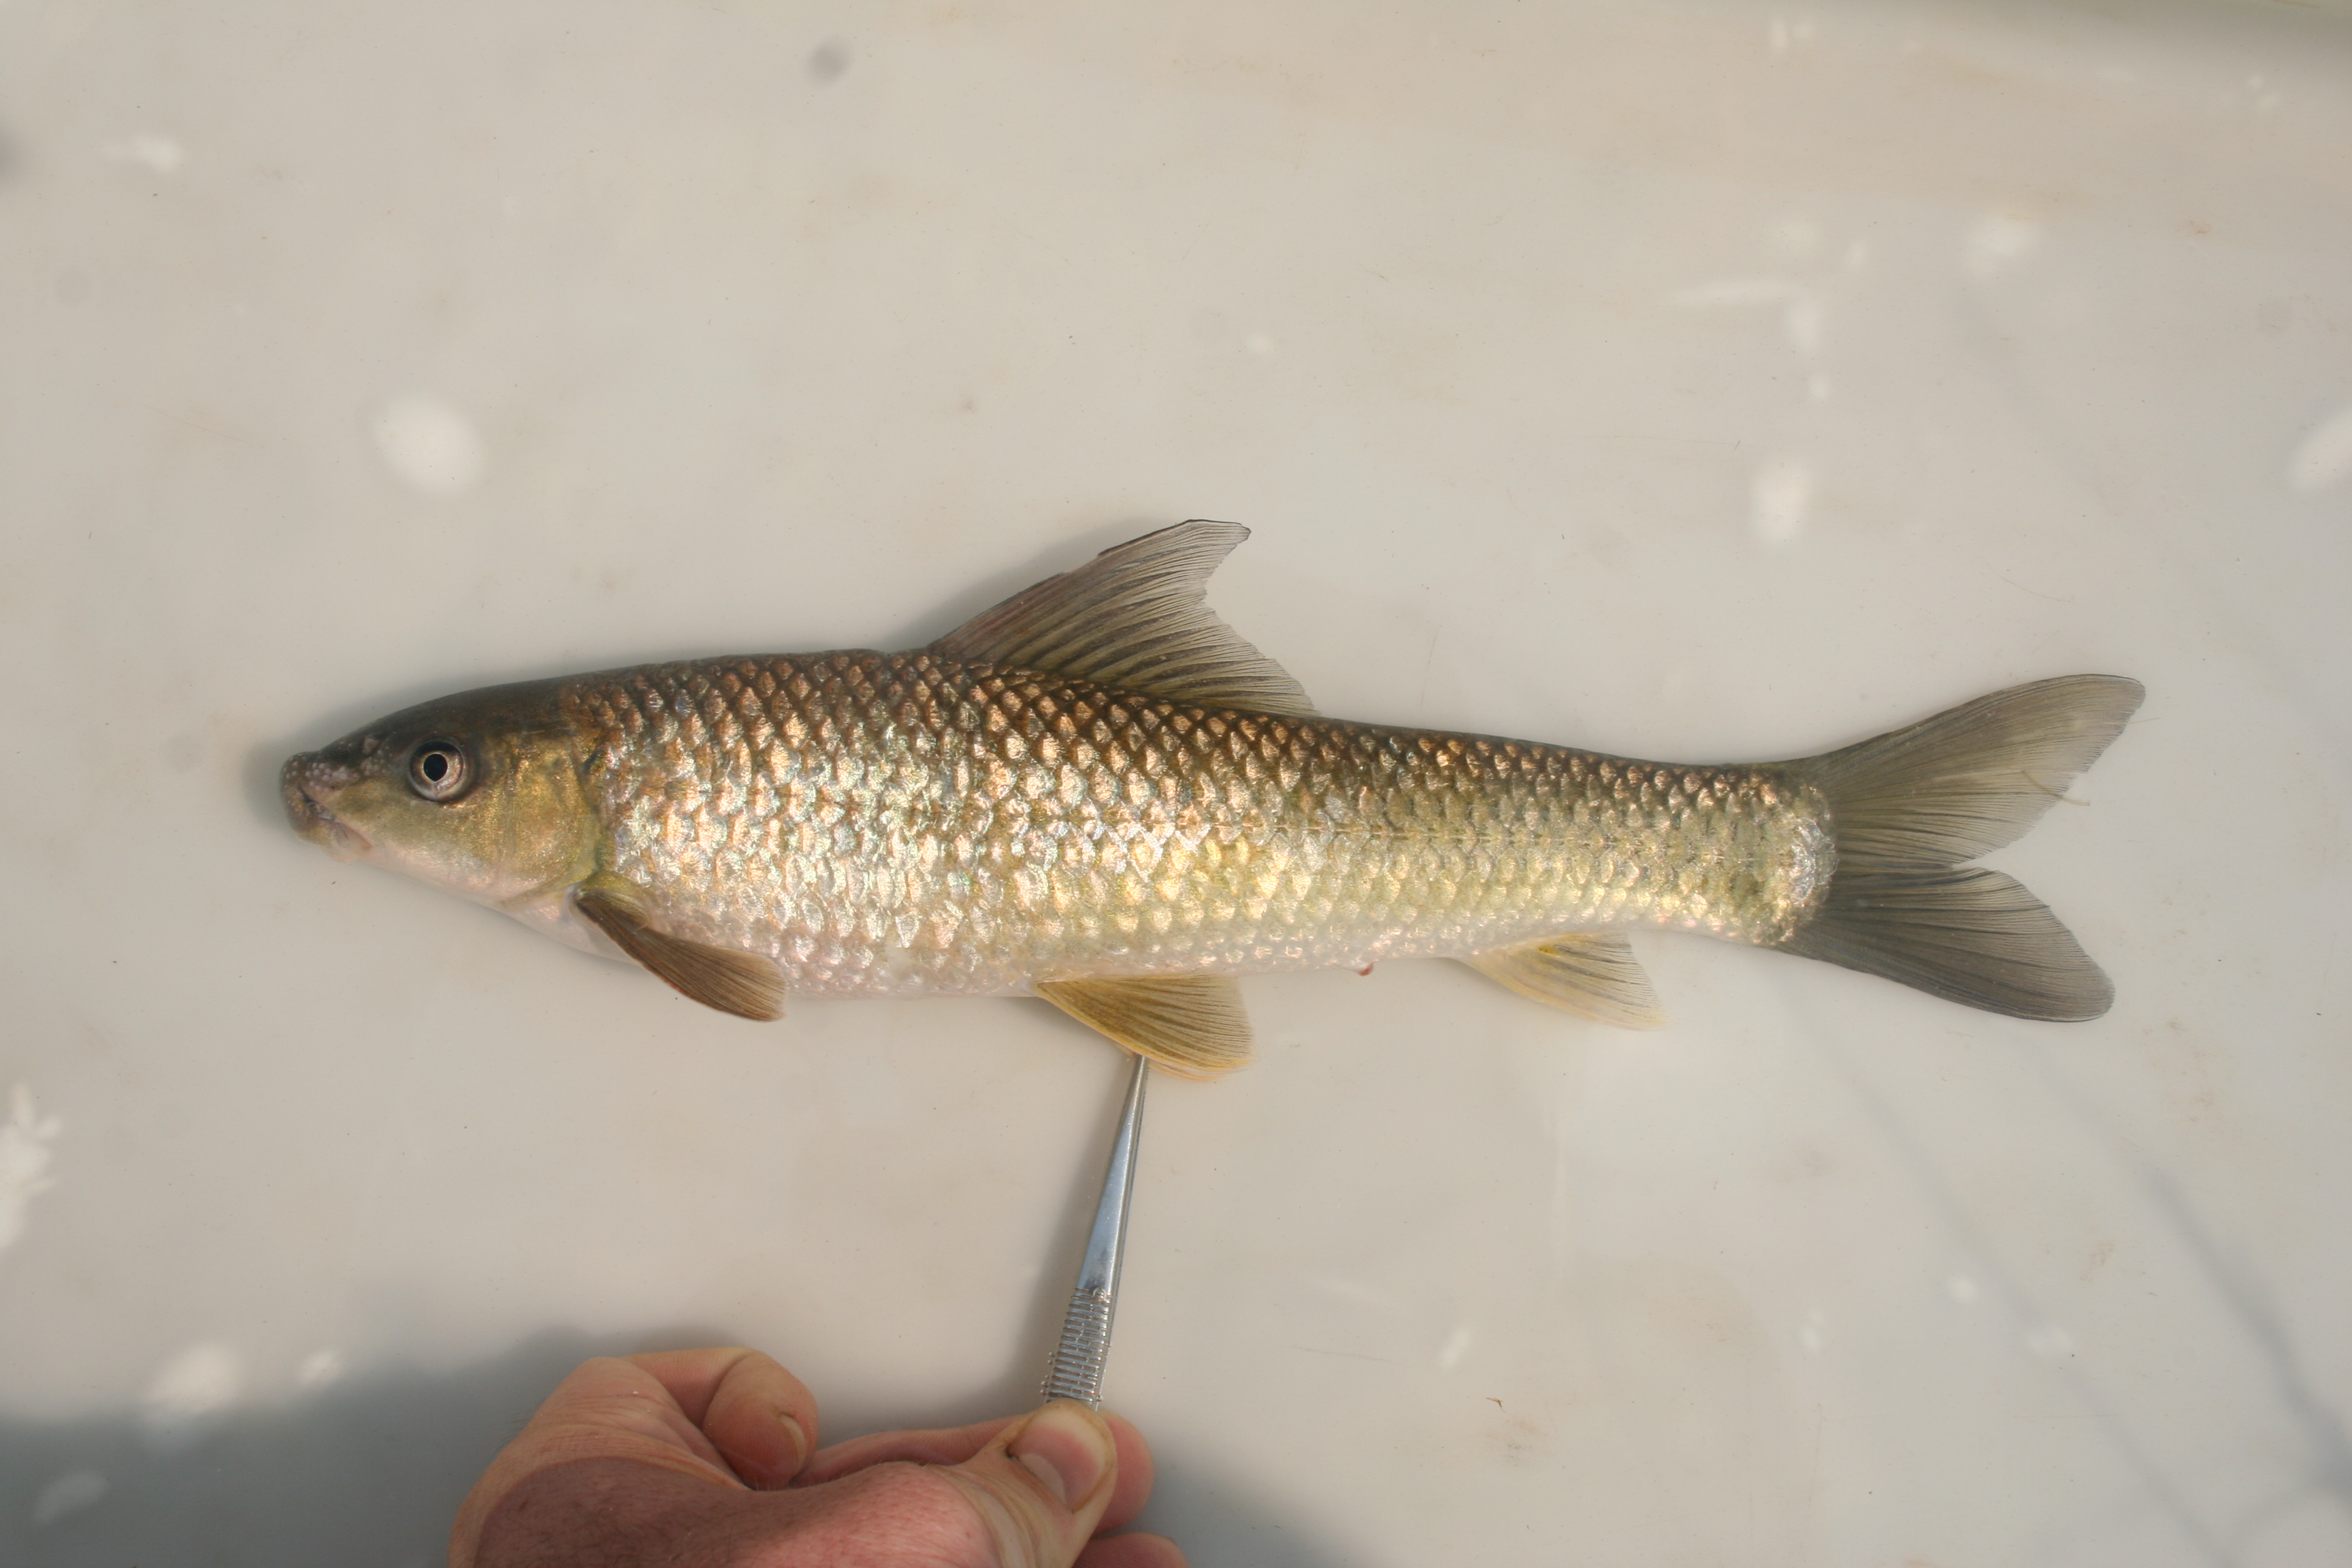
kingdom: Animalia
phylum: Chordata
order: Cypriniformes
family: Cyprinidae
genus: Labeo
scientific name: Labeo
